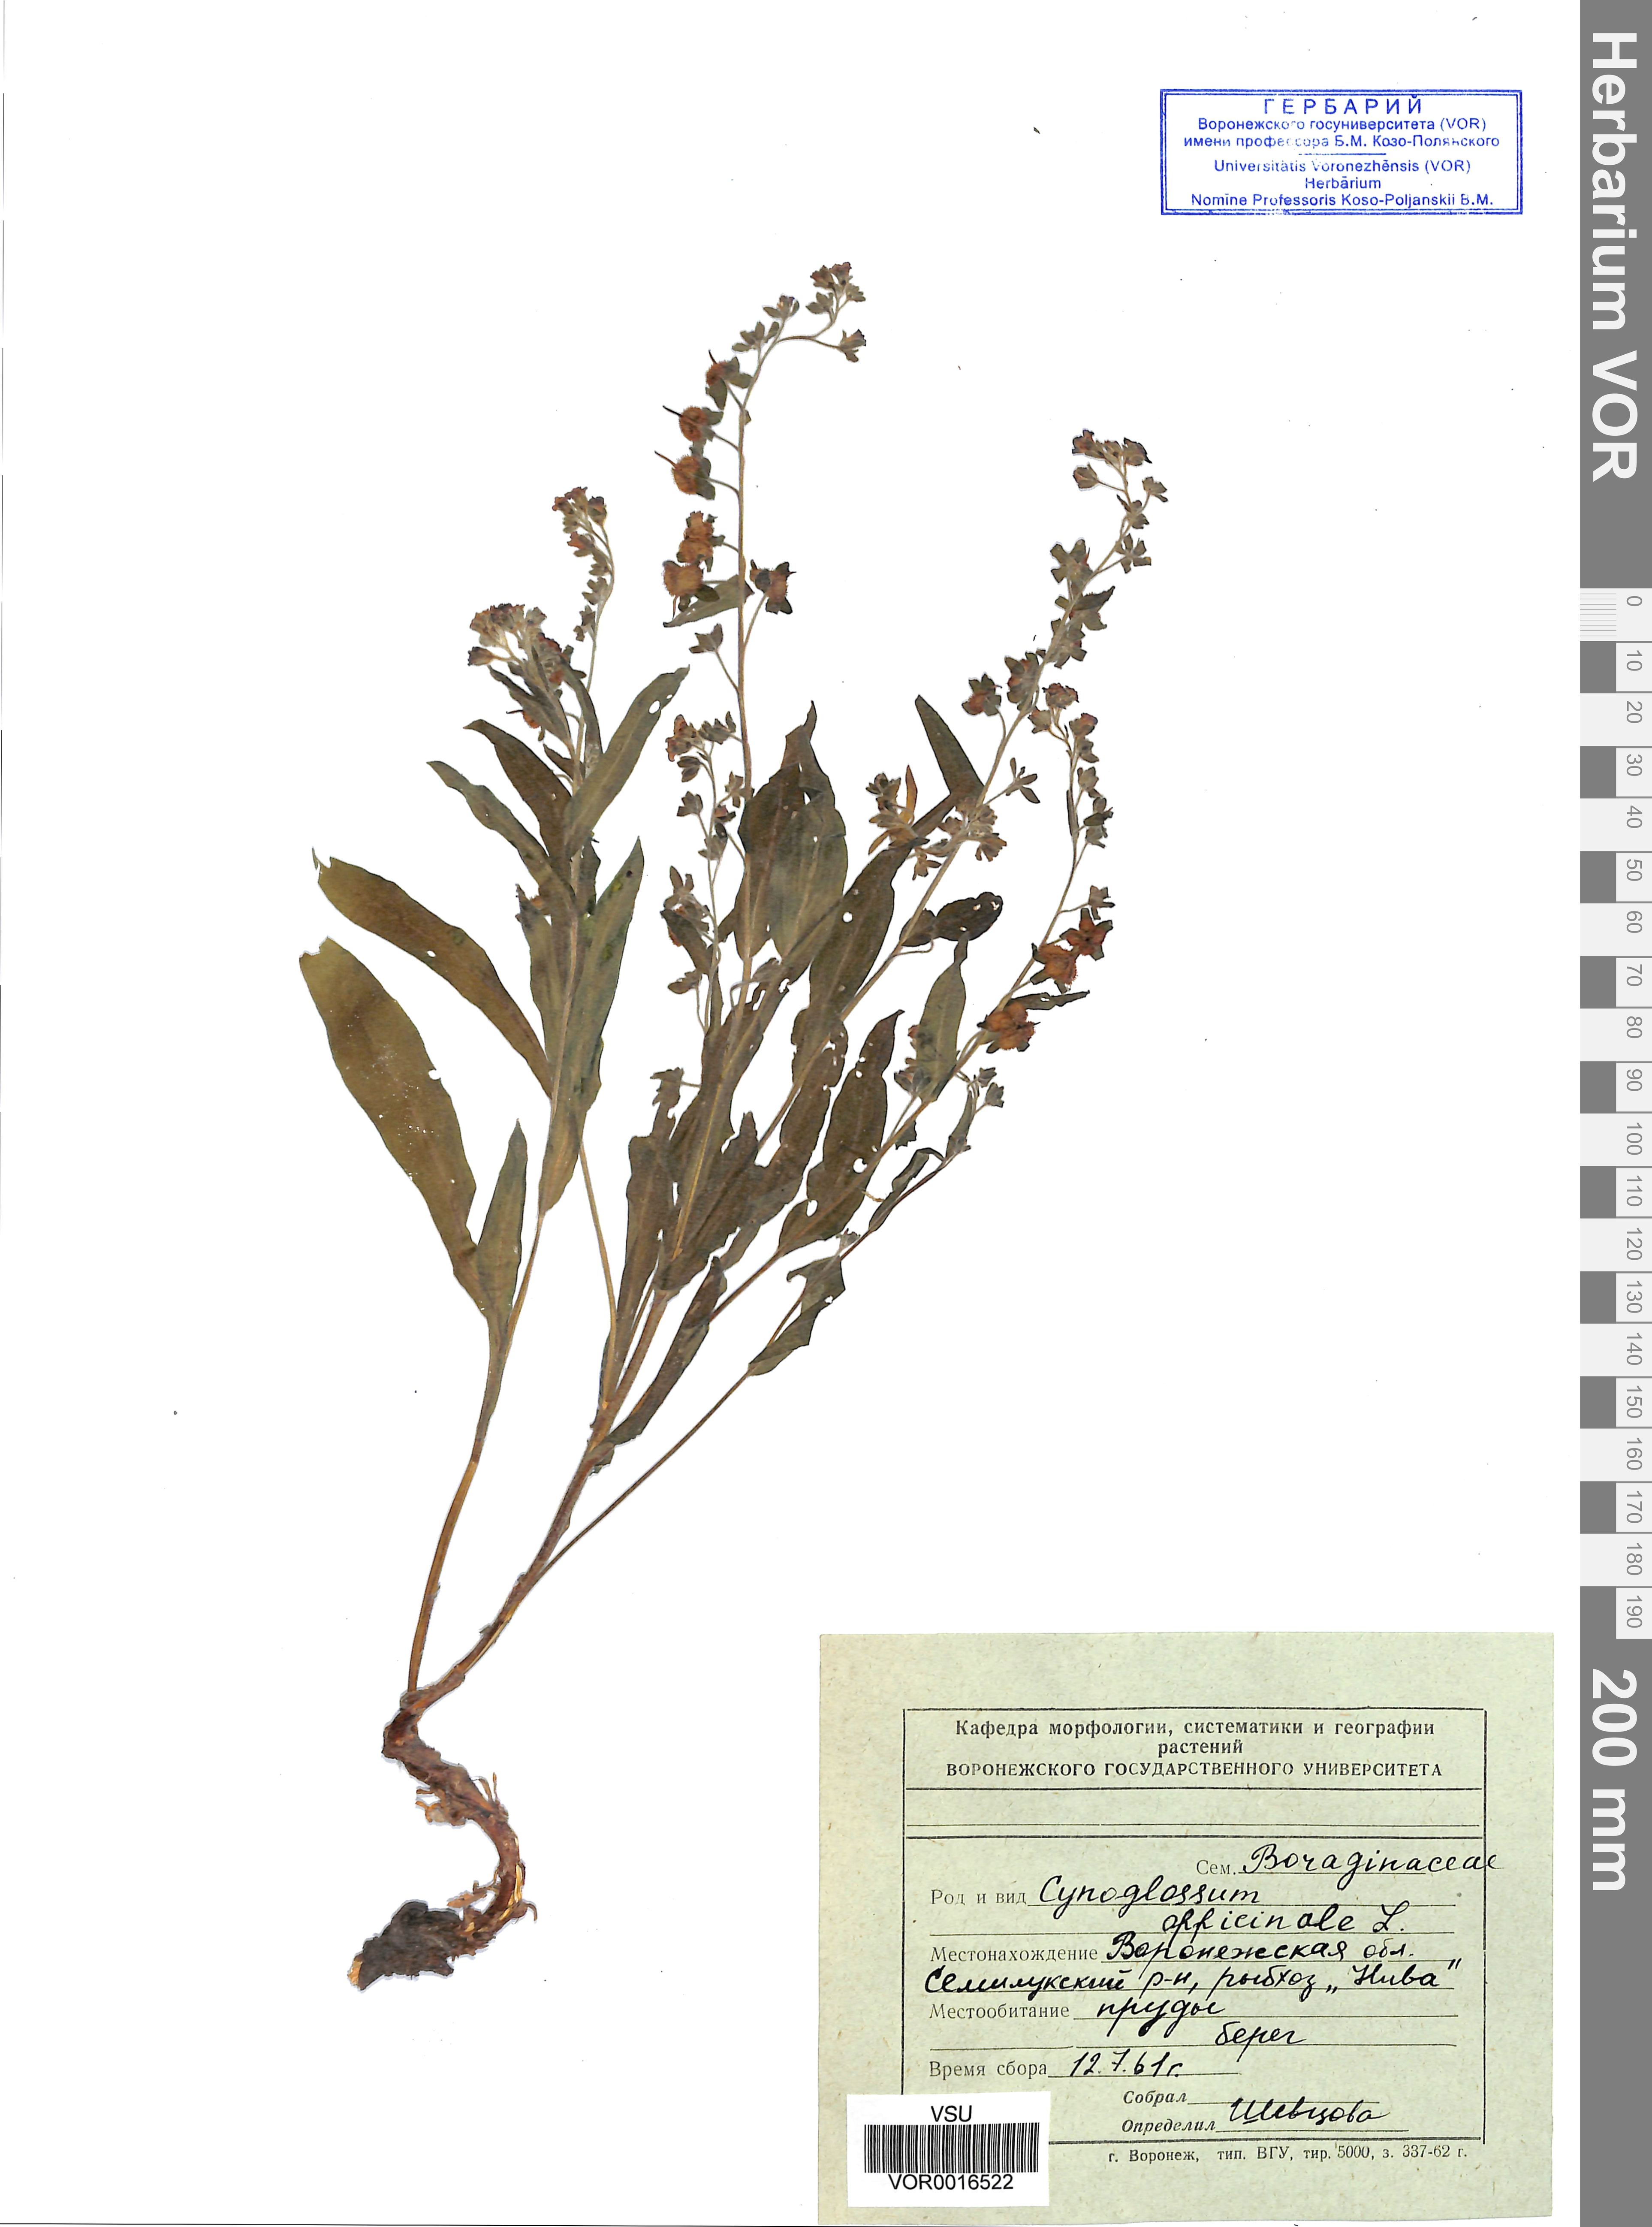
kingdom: Plantae
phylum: Tracheophyta
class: Magnoliopsida
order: Boraginales
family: Boraginaceae
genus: Cynoglossum
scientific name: Cynoglossum officinale
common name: Hound's-tongue
